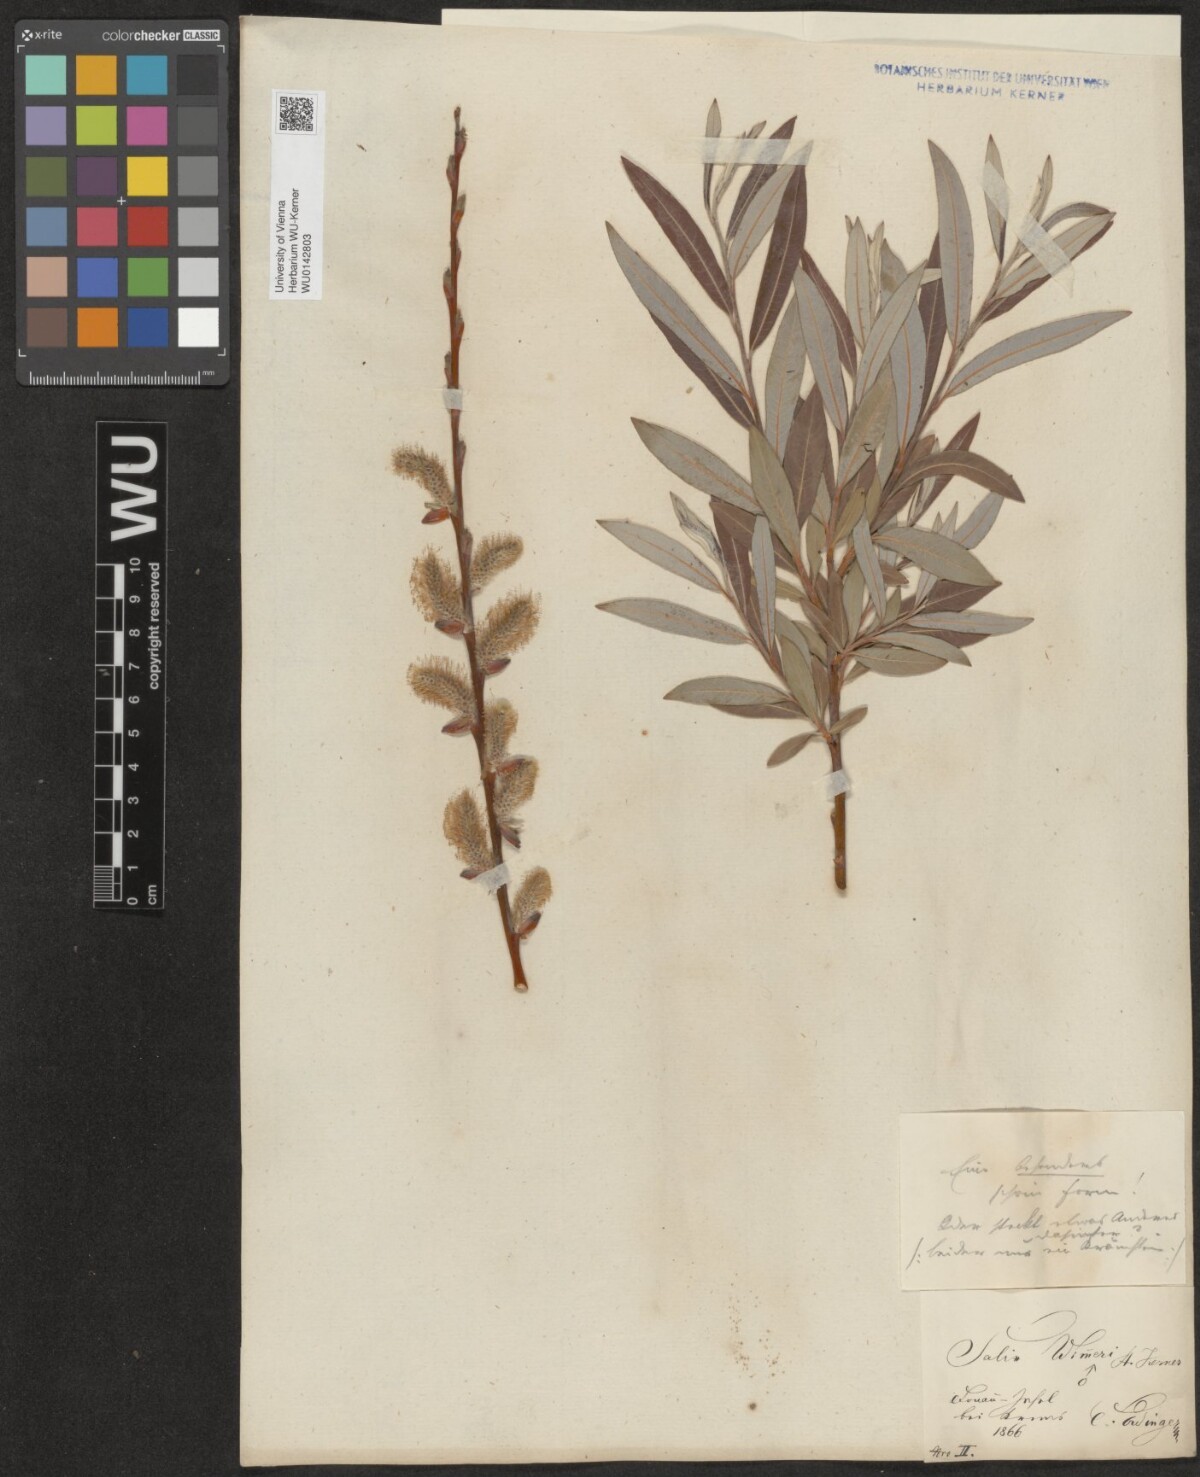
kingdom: Plantae
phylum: Tracheophyta
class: Magnoliopsida
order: Malpighiales
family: Salicaceae
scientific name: Salicaceae
